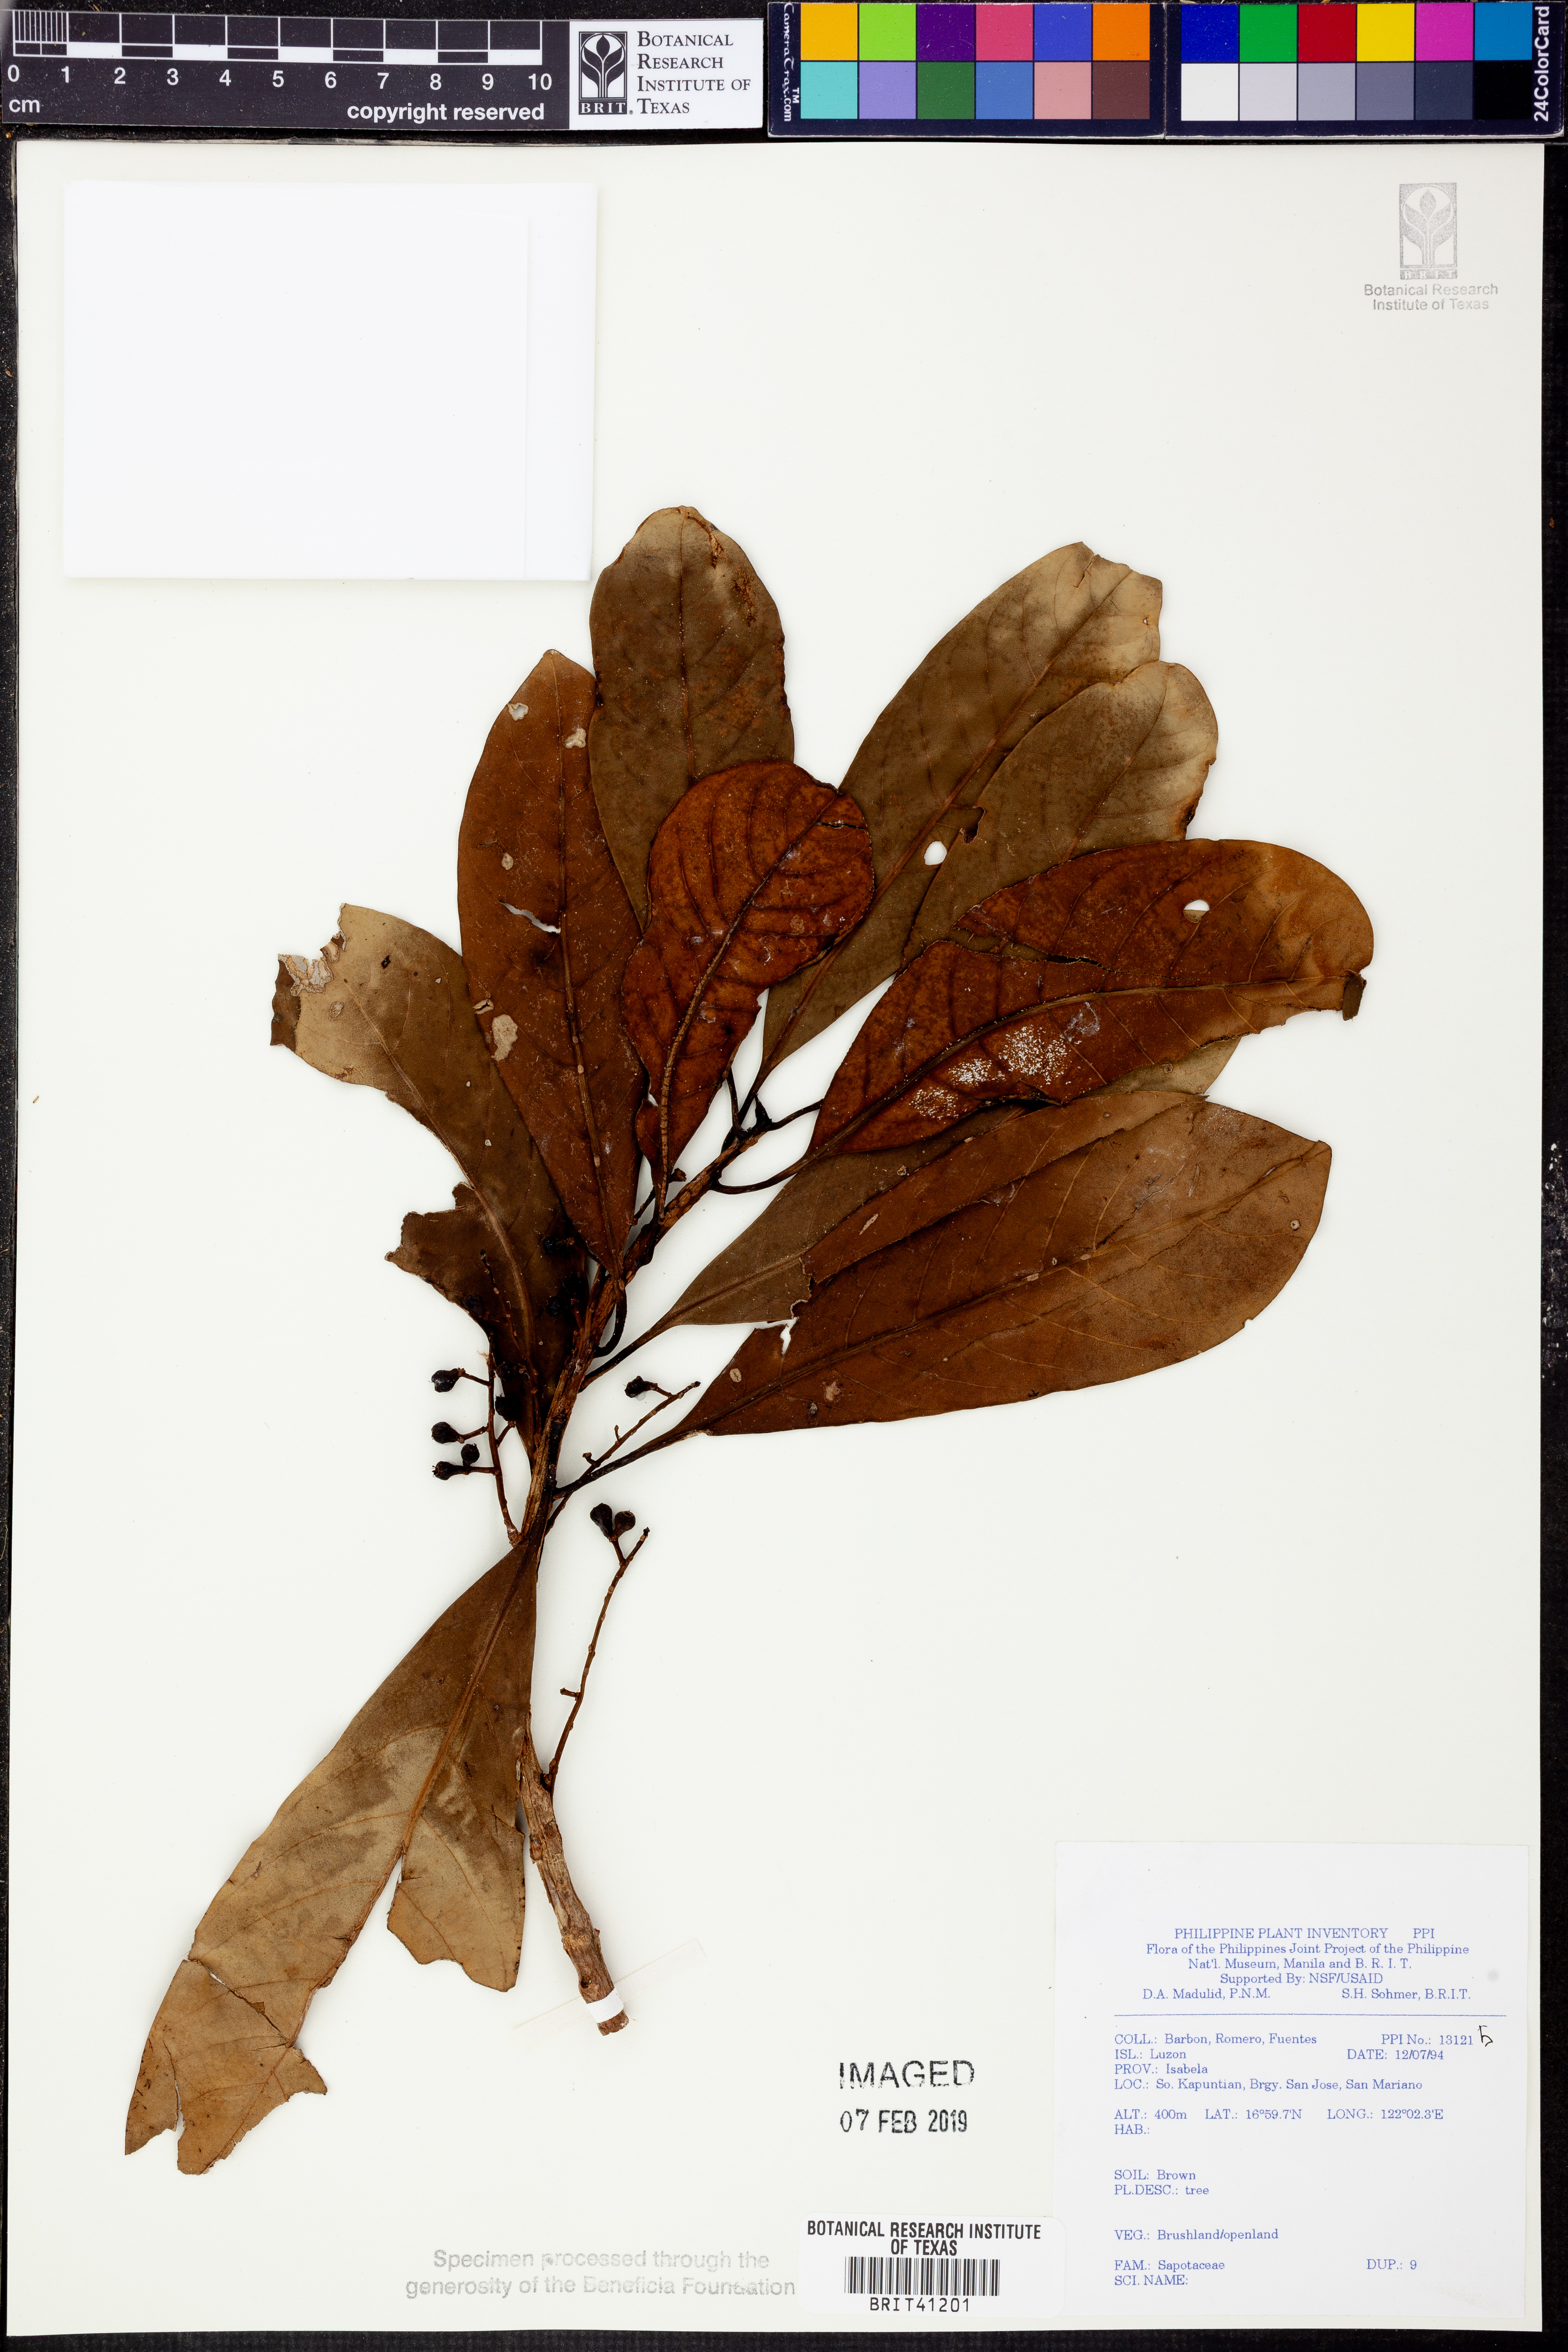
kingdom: Plantae
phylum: Tracheophyta
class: Magnoliopsida
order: Ericales
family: Sapotaceae
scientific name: Sapotaceae
